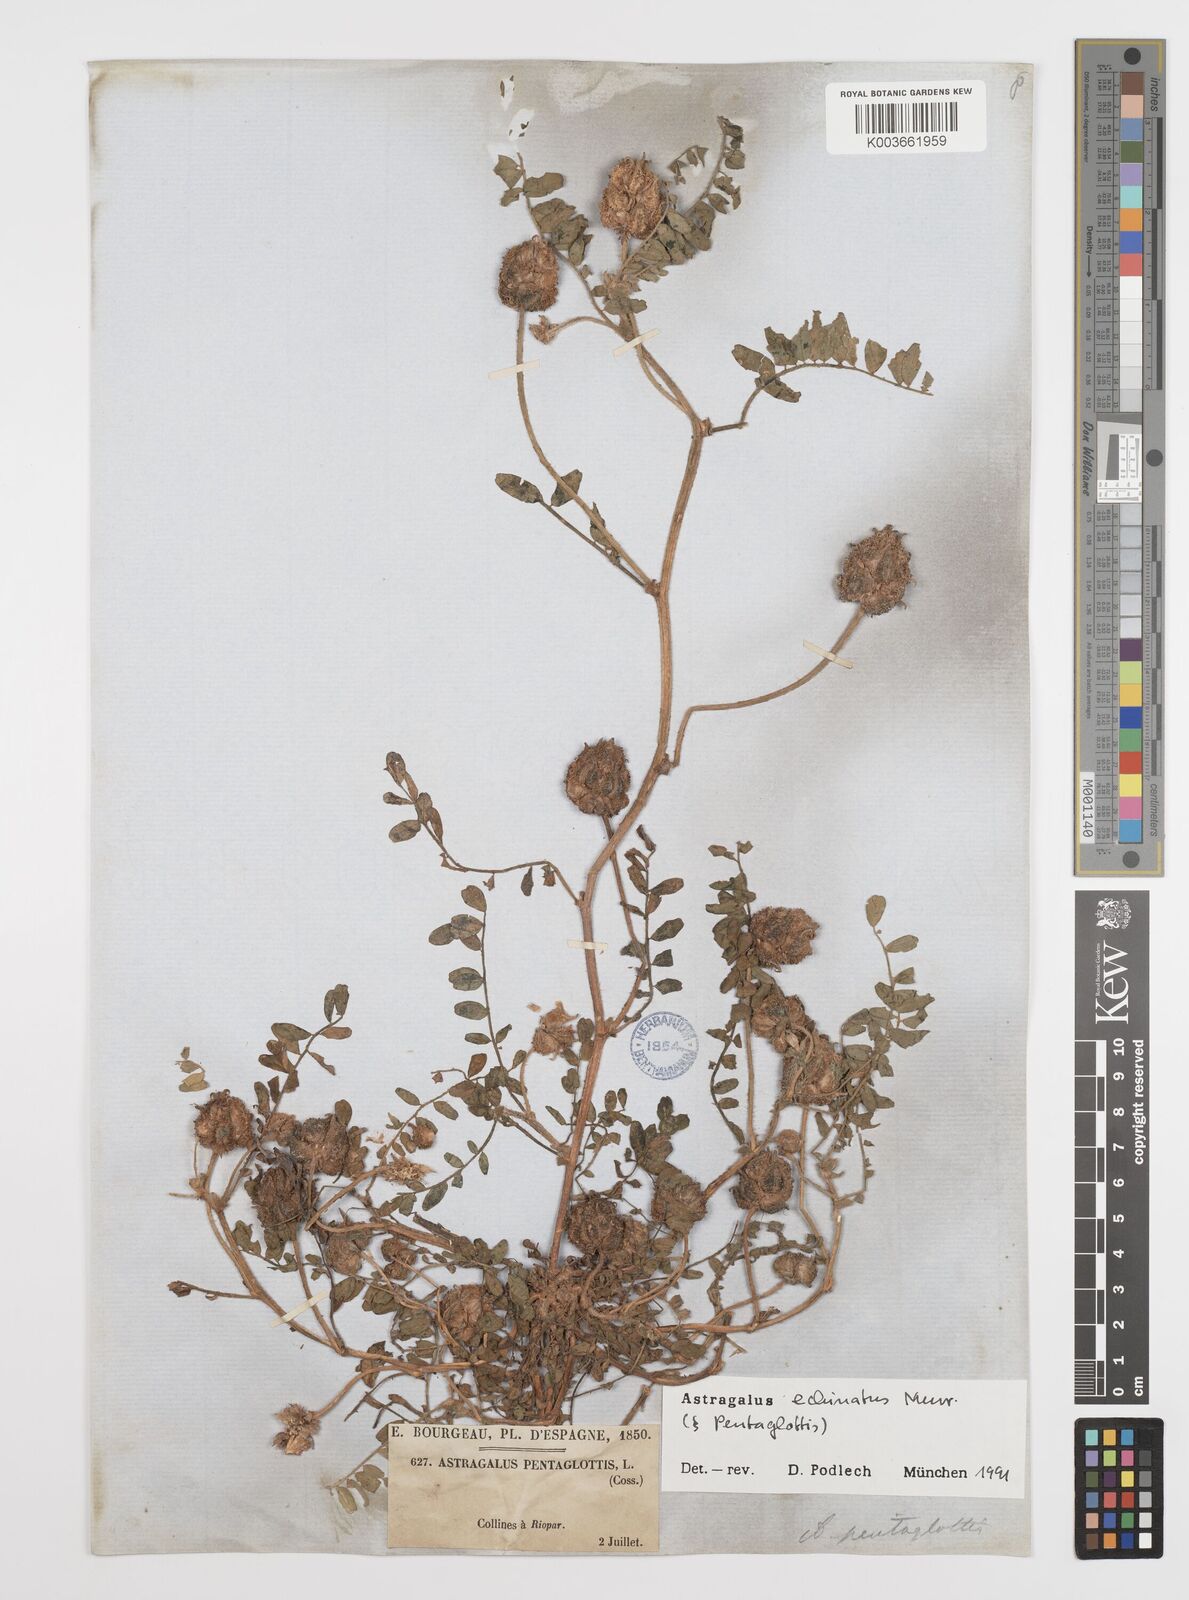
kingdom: Plantae
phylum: Tracheophyta
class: Magnoliopsida
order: Fabales
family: Fabaceae
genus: Astragalus
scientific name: Astragalus echinatus
